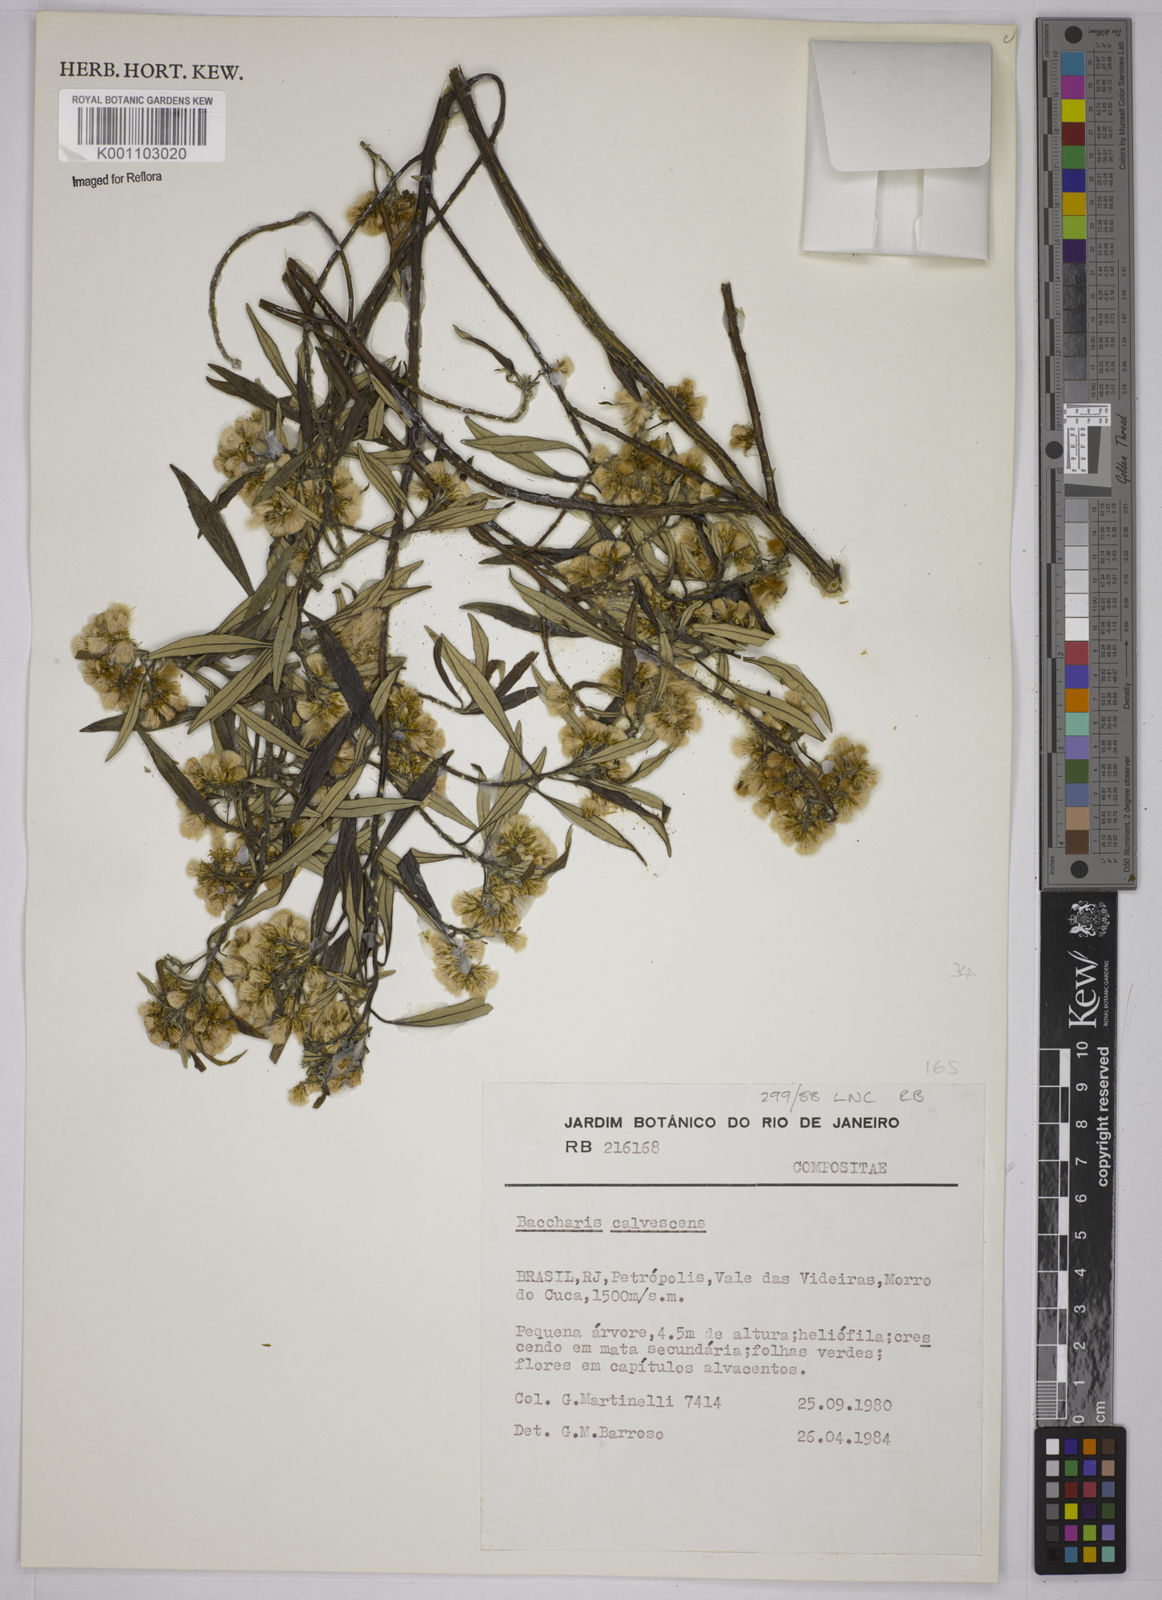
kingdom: Plantae
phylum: Tracheophyta
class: Magnoliopsida
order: Asterales
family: Asteraceae
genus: Baccharis
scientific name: Baccharis calvescens
